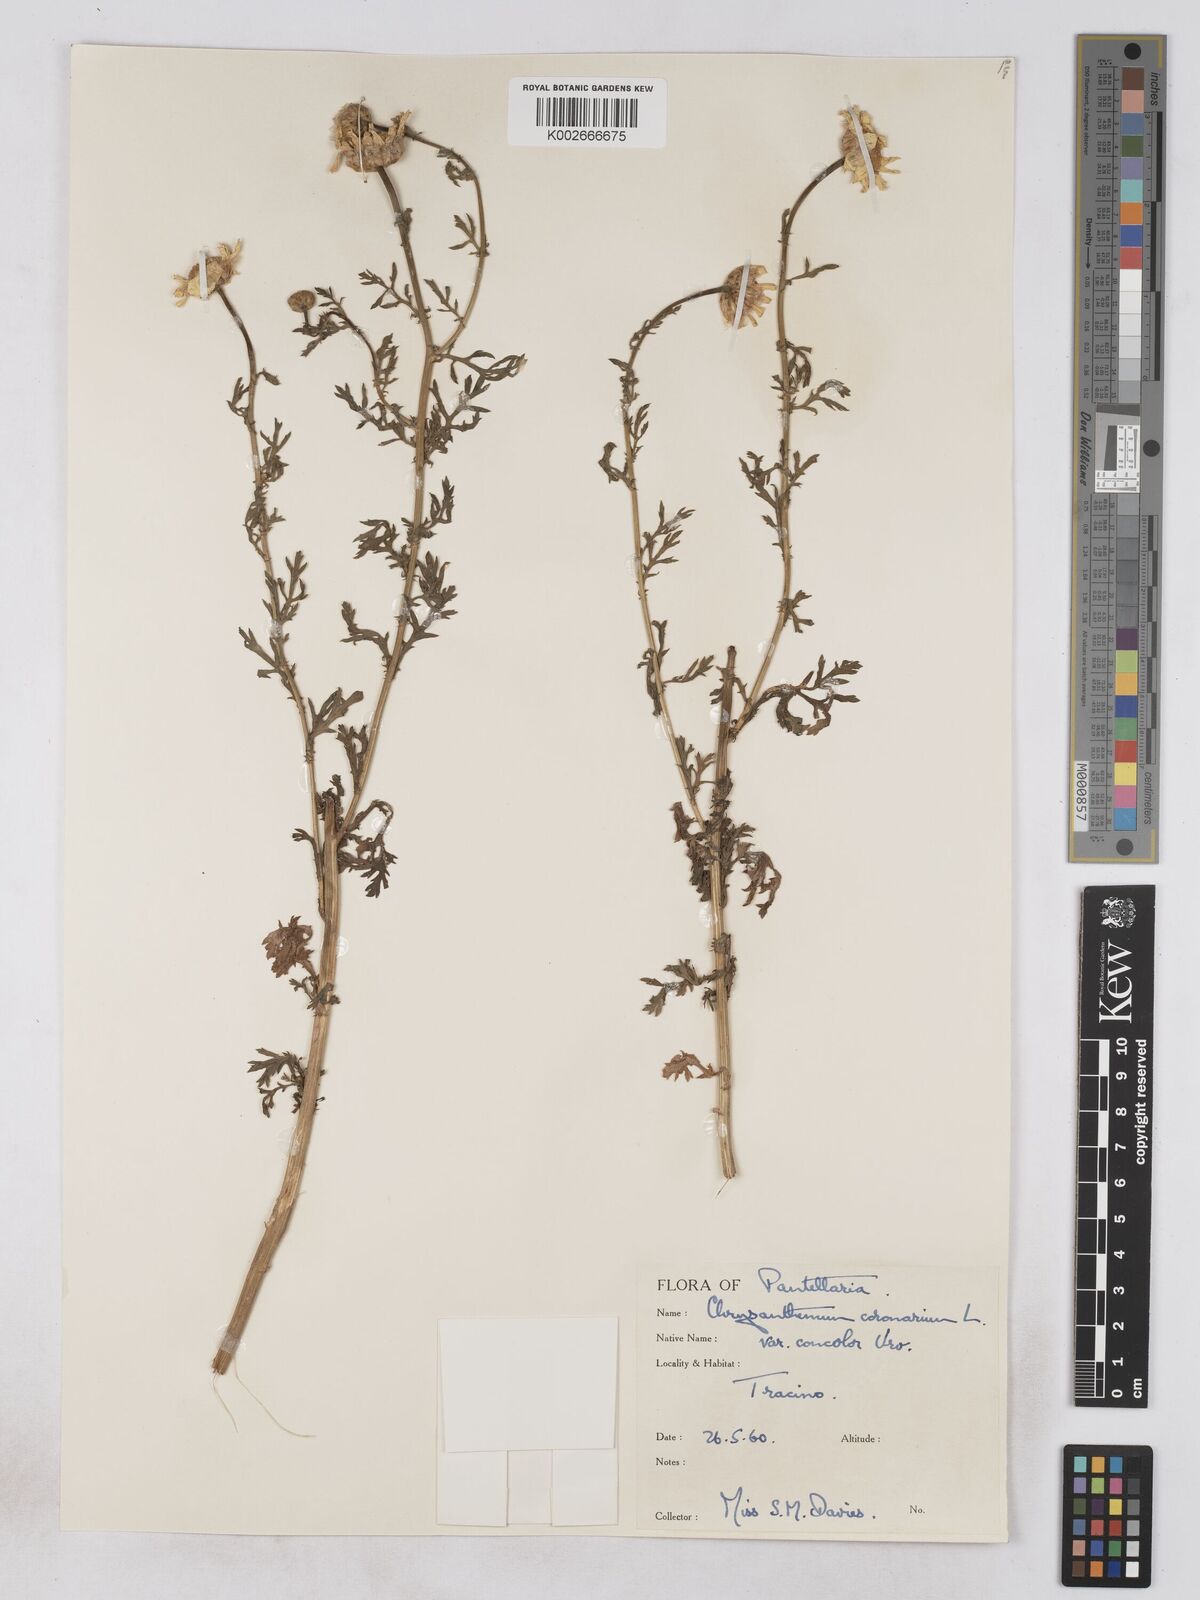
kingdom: Plantae
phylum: Tracheophyta
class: Magnoliopsida
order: Asterales
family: Asteraceae
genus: Glebionis
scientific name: Glebionis coronaria
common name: Crowndaisy
